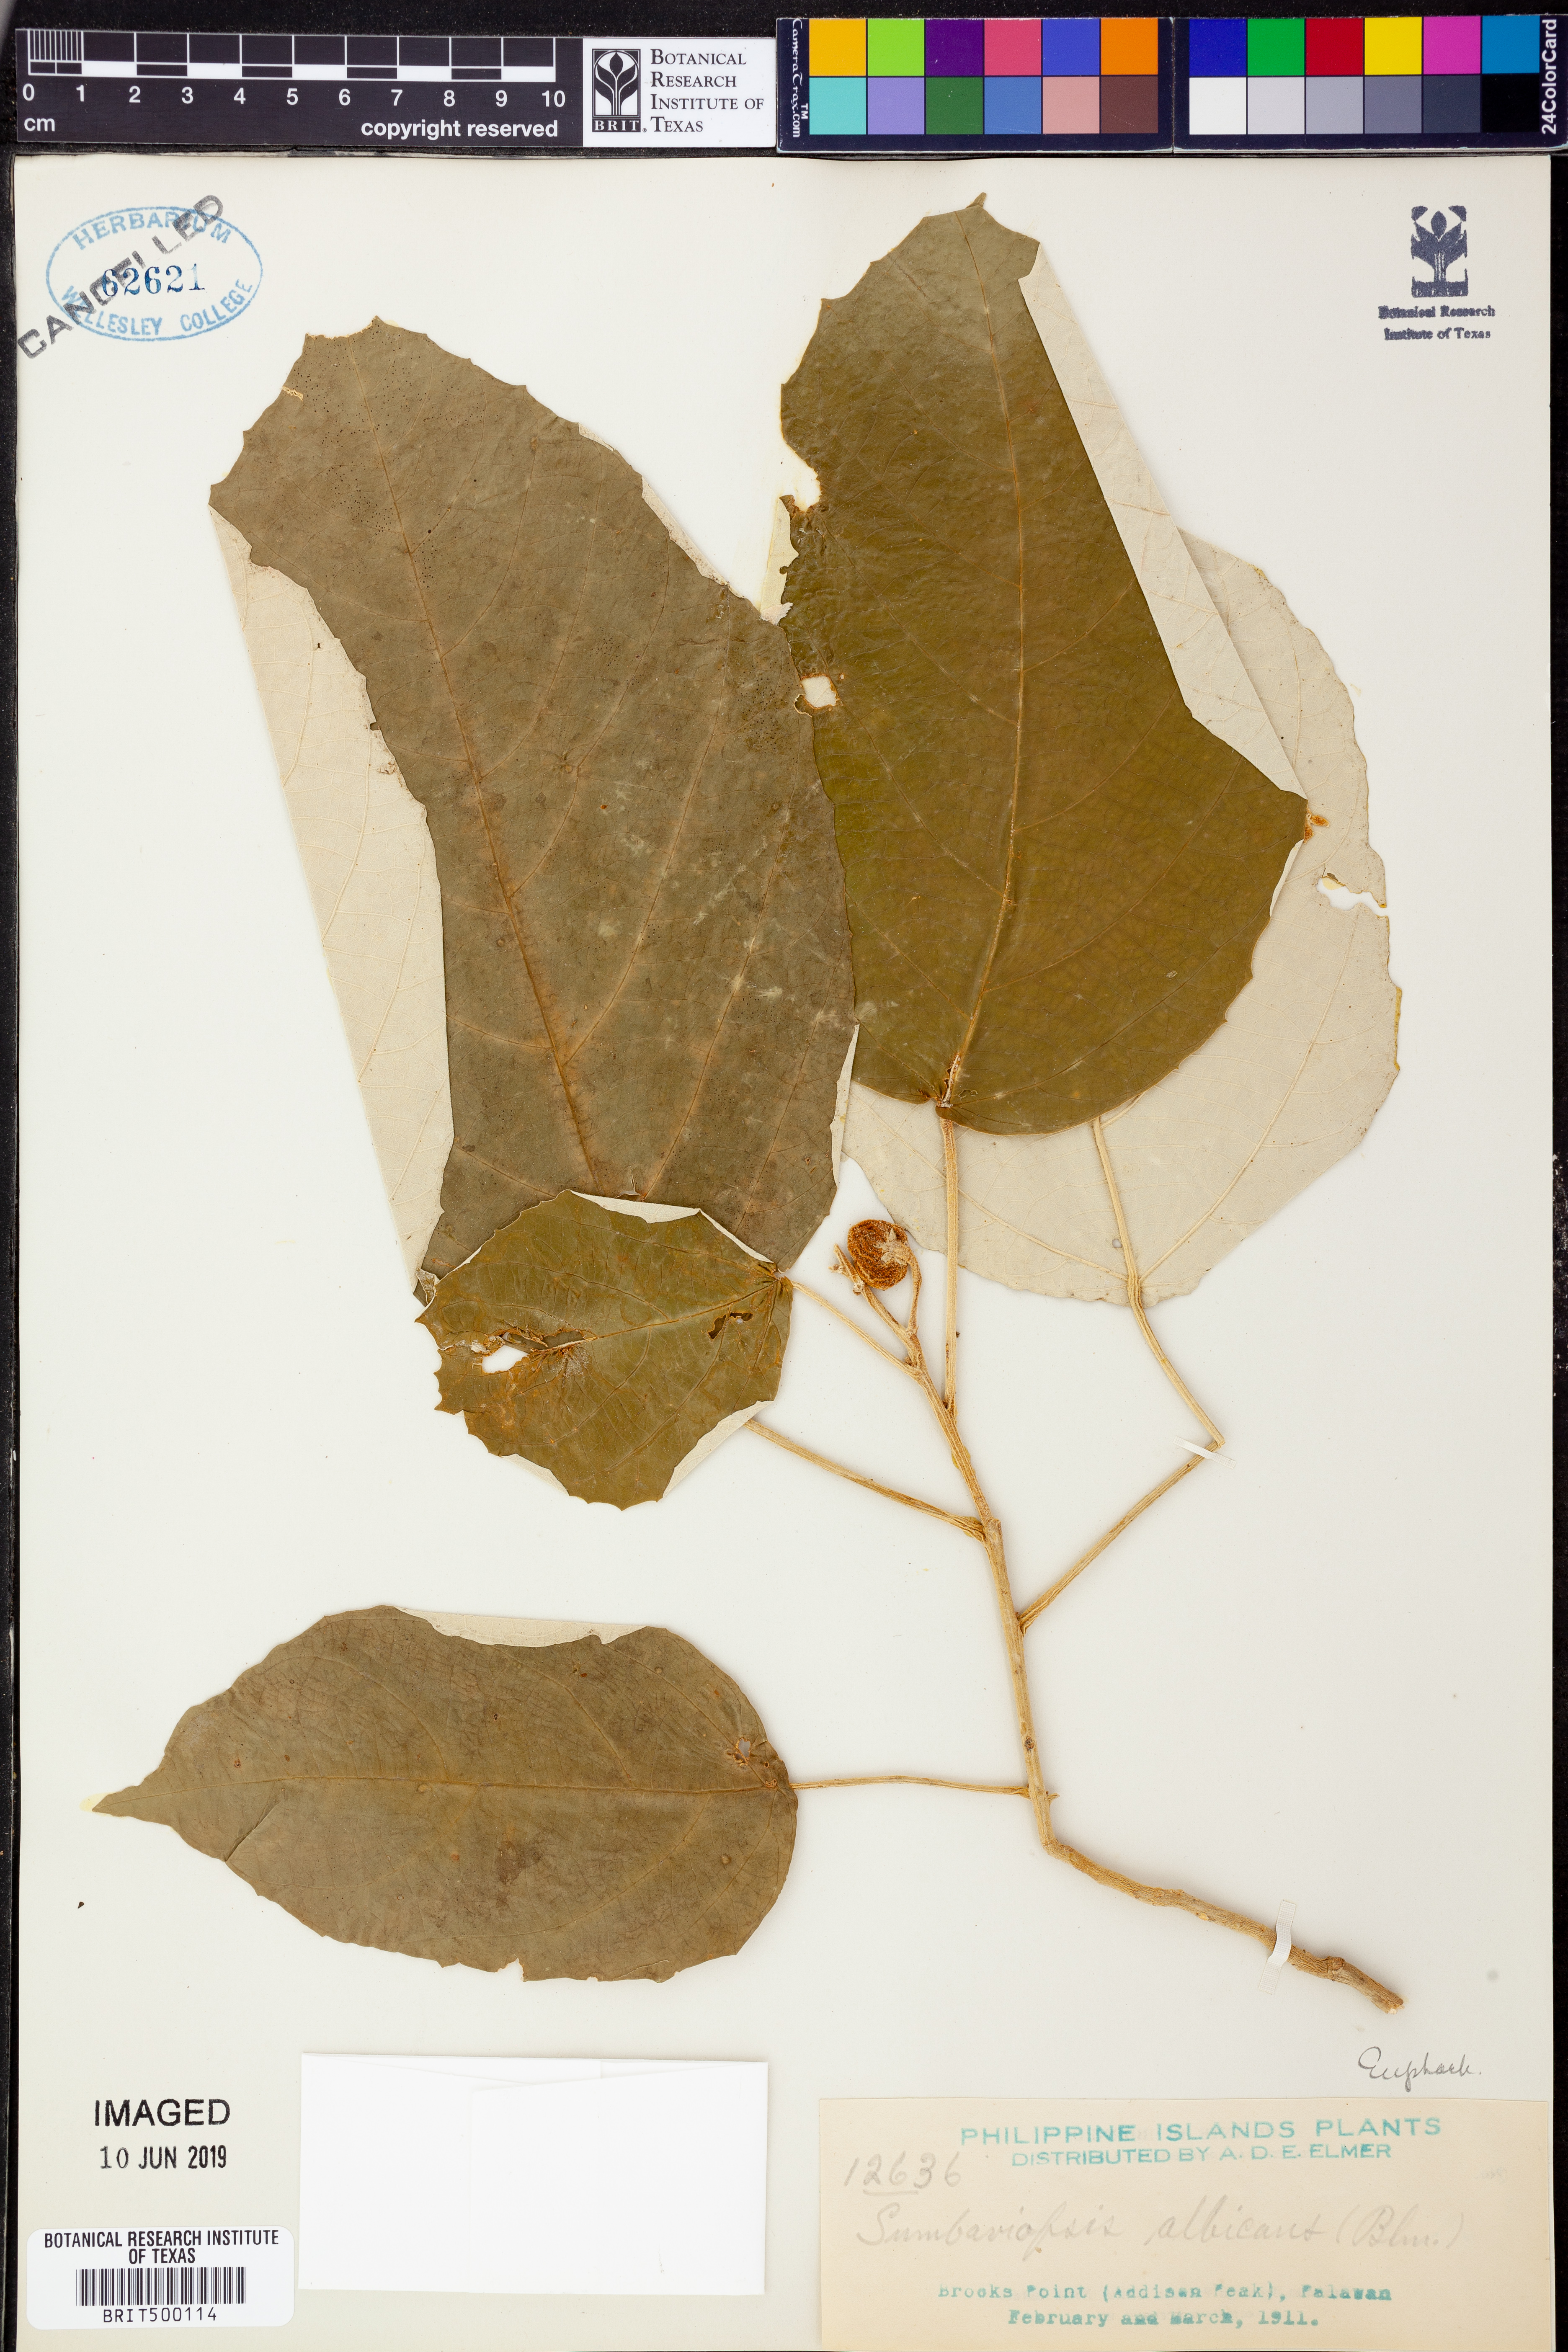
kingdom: Plantae
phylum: Tracheophyta
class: Magnoliopsida
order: Malpighiales
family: Euphorbiaceae
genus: Sumbaviopsis
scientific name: Sumbaviopsis albicans
